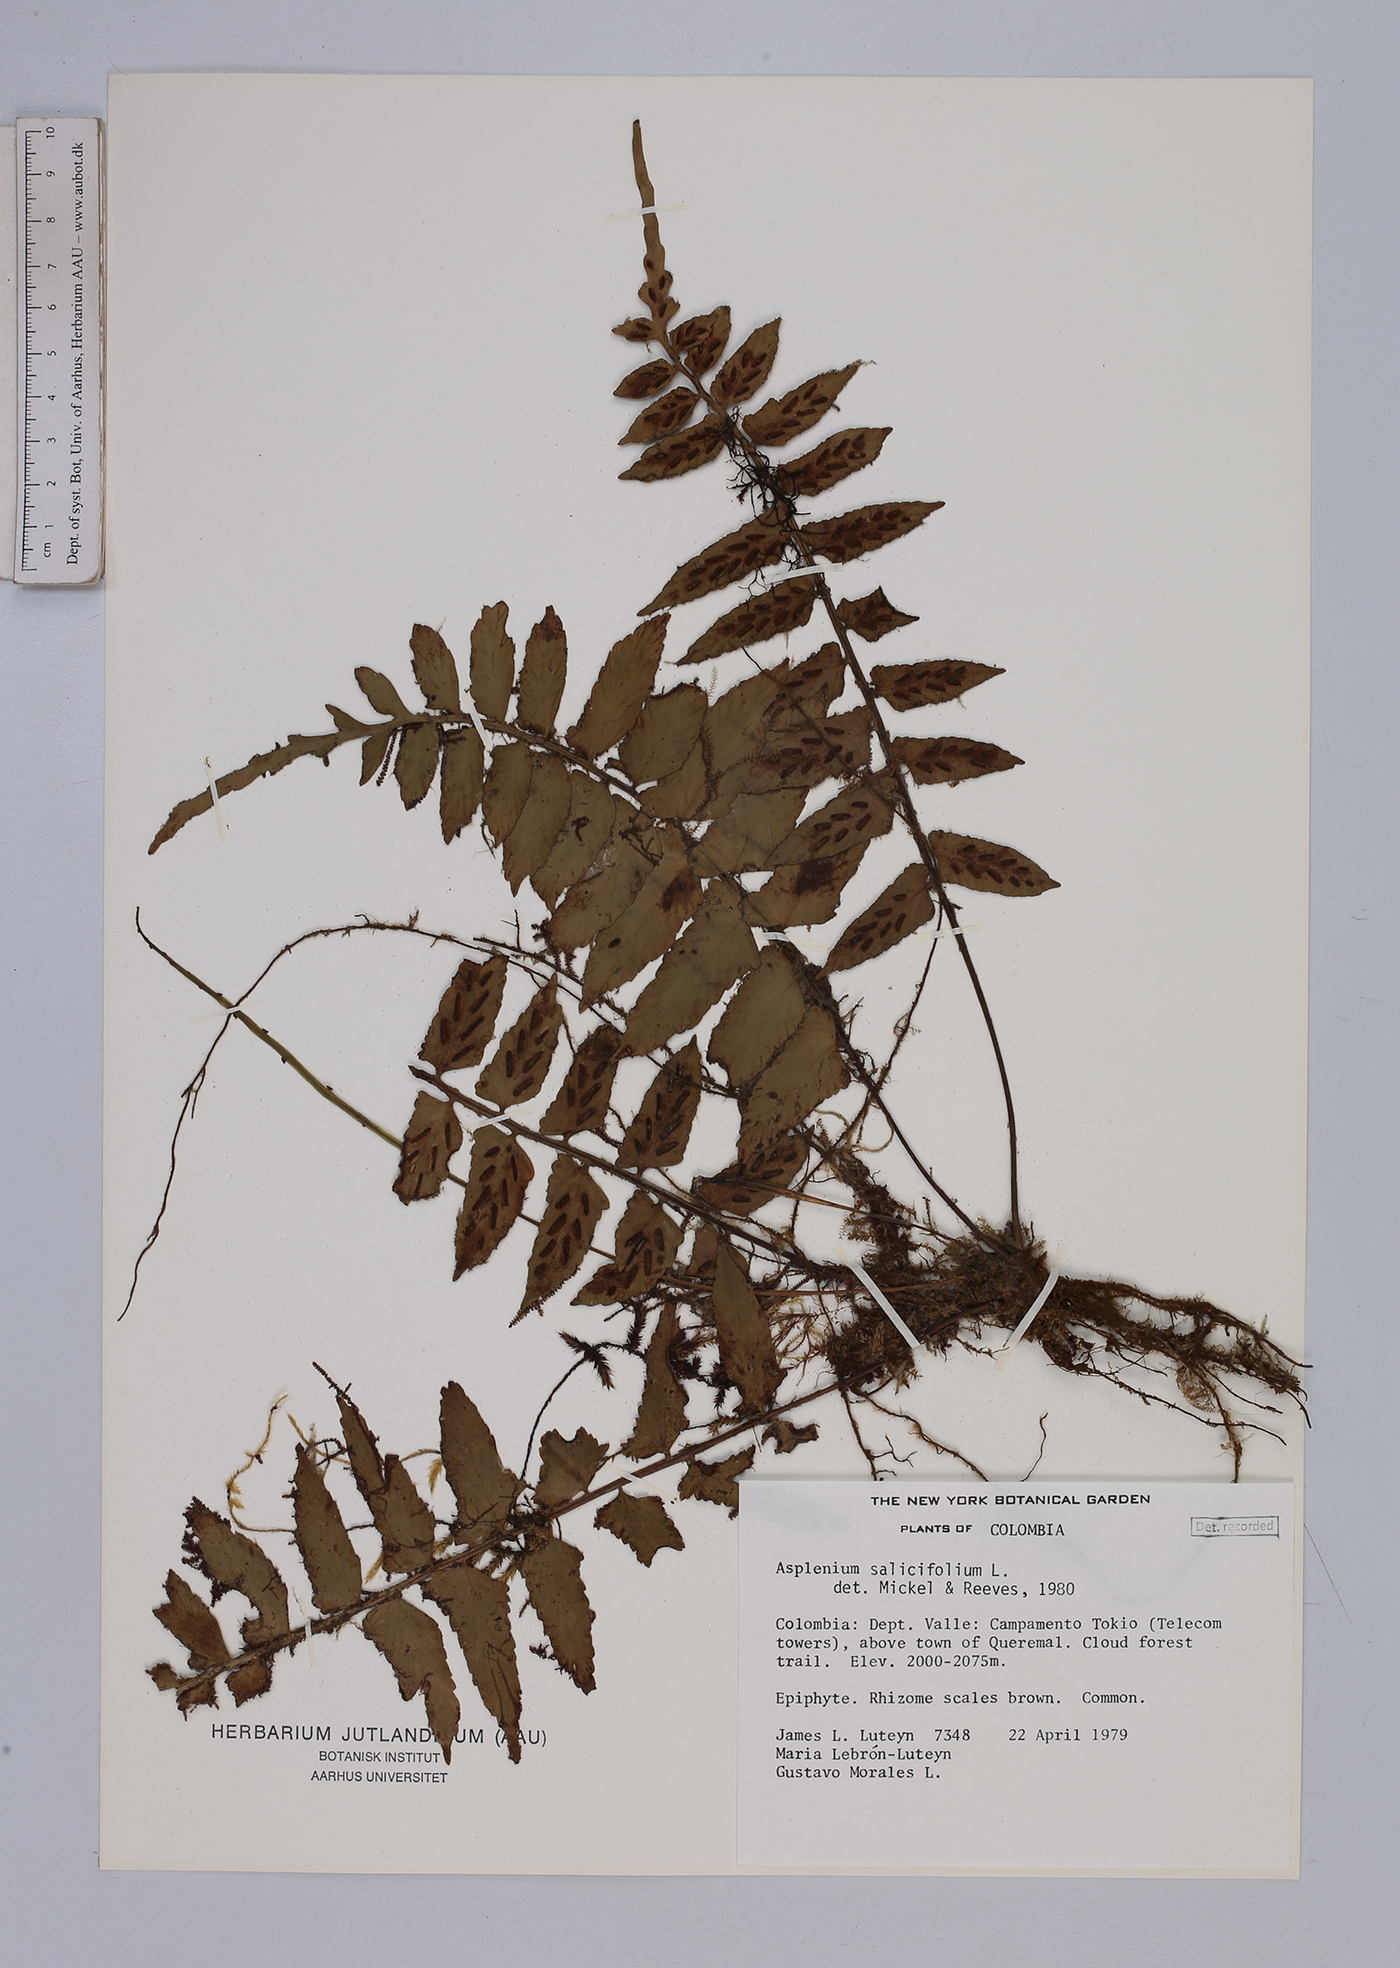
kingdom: Plantae
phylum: Tracheophyta
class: Polypodiopsida
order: Polypodiales
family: Aspleniaceae
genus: Asplenium
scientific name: Asplenium salicifolium
